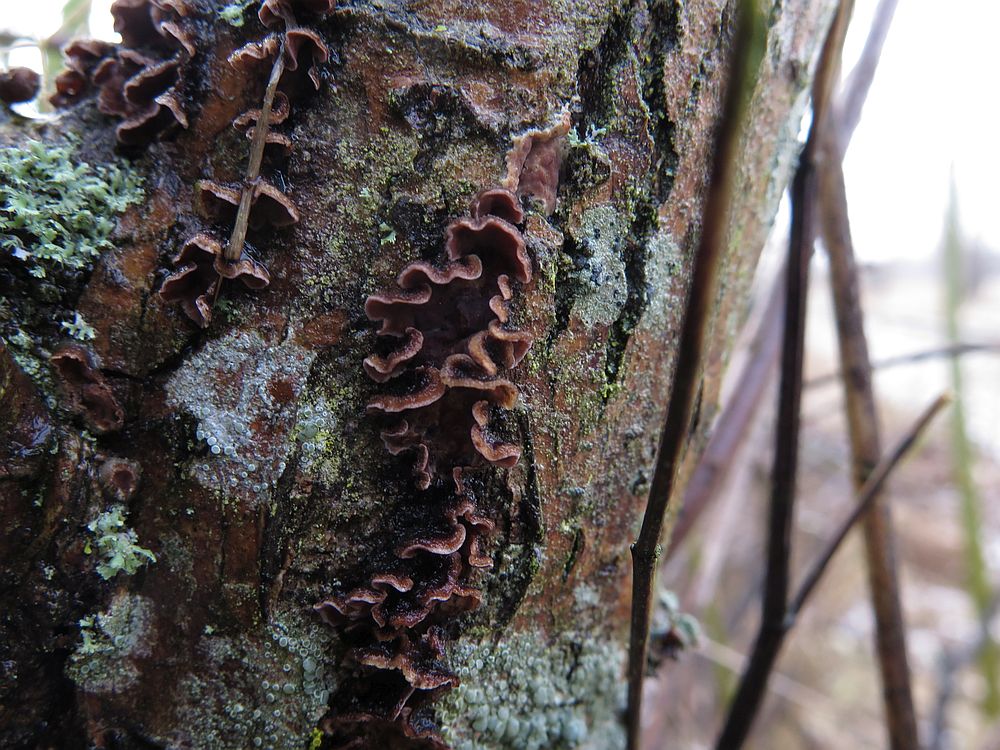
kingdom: Fungi
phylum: Basidiomycota
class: Agaricomycetes
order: Agaricales
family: Cyphellaceae
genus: Chondrostereum
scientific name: Chondrostereum purpureum
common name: purpurlædersvamp
